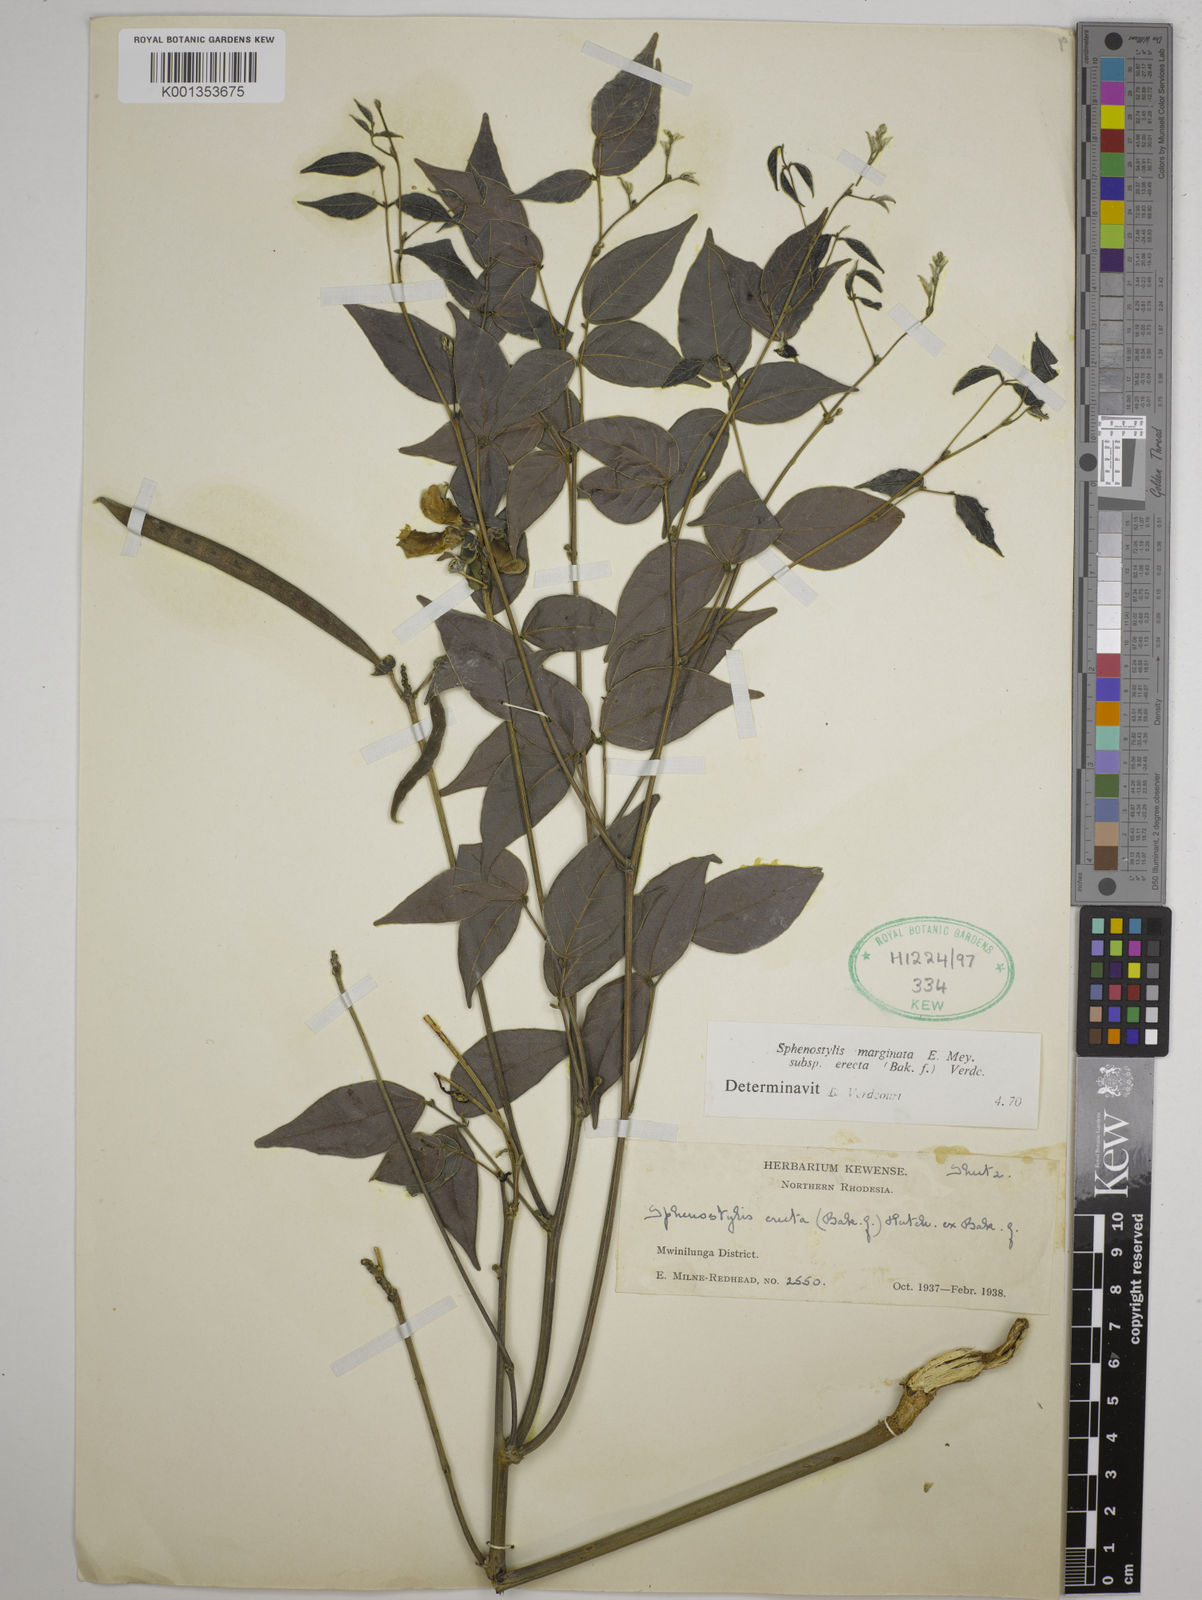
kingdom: Plantae
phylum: Tracheophyta
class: Magnoliopsida
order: Fabales
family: Fabaceae
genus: Sphenostylis
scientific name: Sphenostylis erecta
